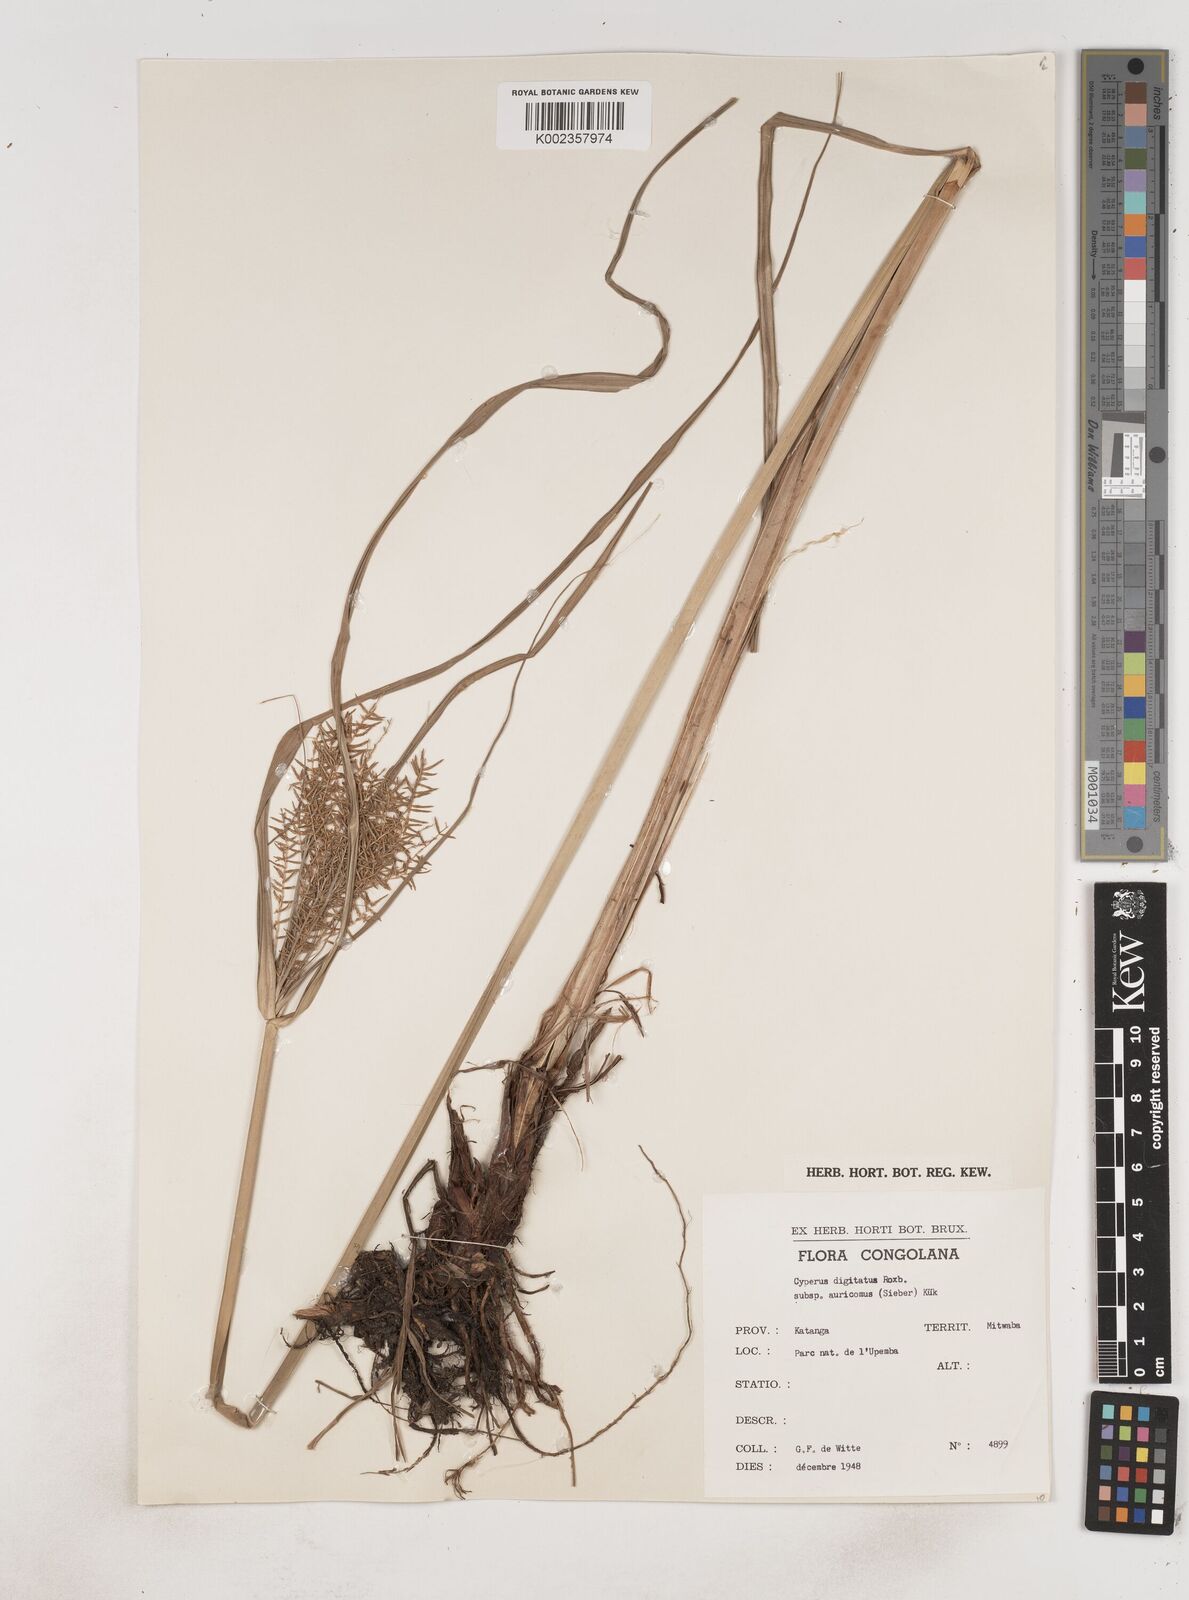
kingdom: Plantae
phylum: Tracheophyta
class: Liliopsida
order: Poales
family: Cyperaceae
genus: Cyperus
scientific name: Cyperus digitatus
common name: Finger flatsedge
